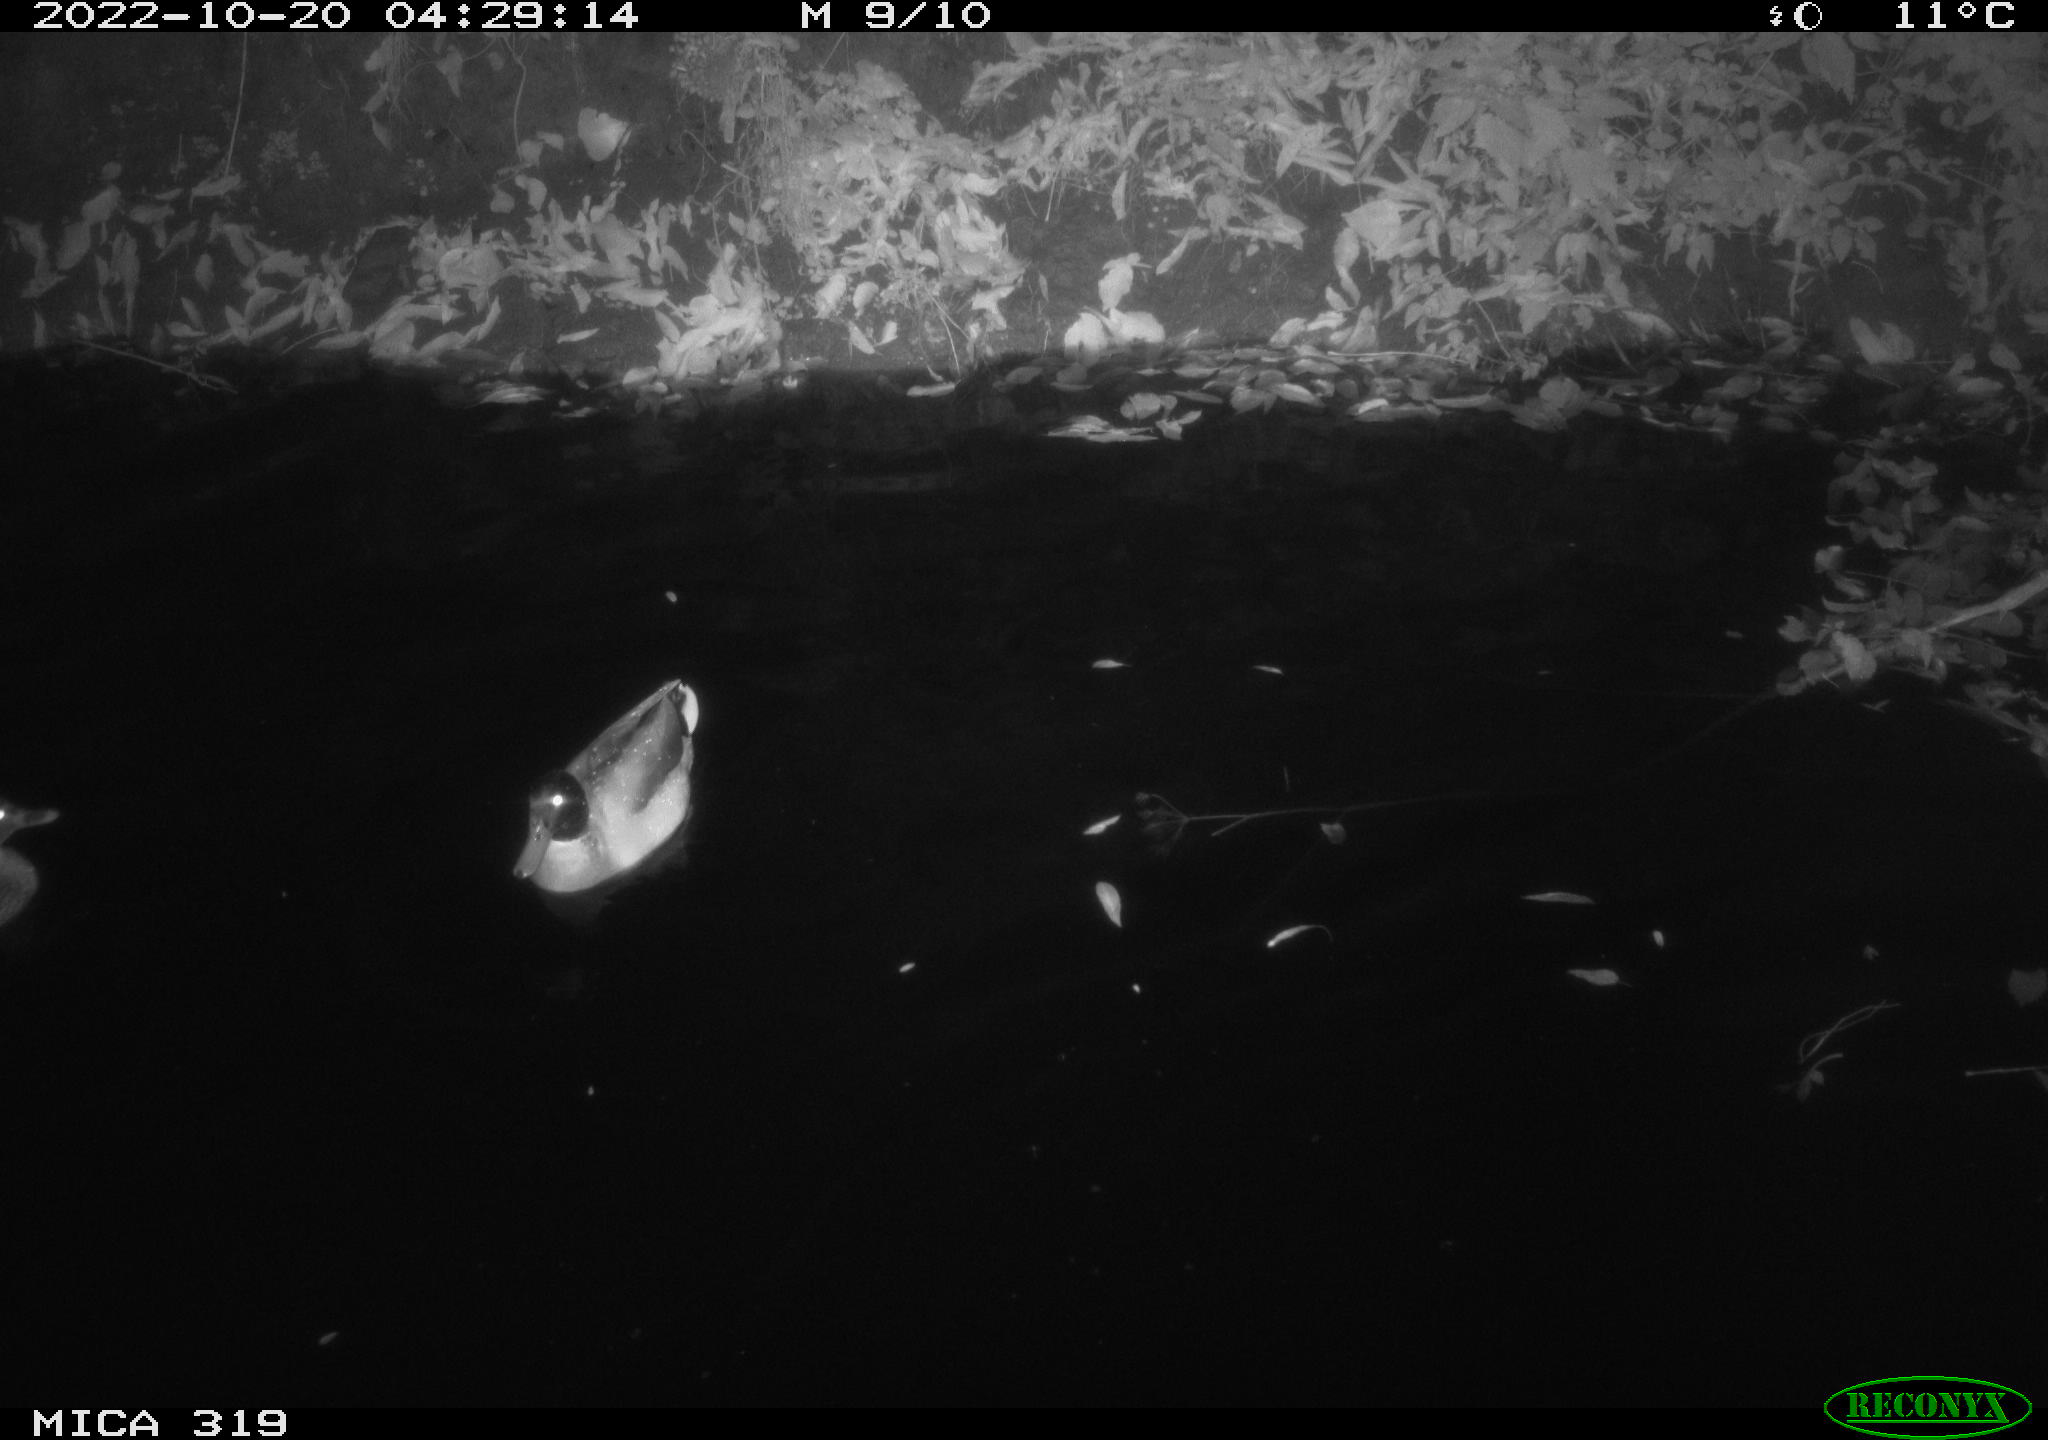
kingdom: Animalia
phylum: Chordata
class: Aves
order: Anseriformes
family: Anatidae
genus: Anas
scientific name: Anas
